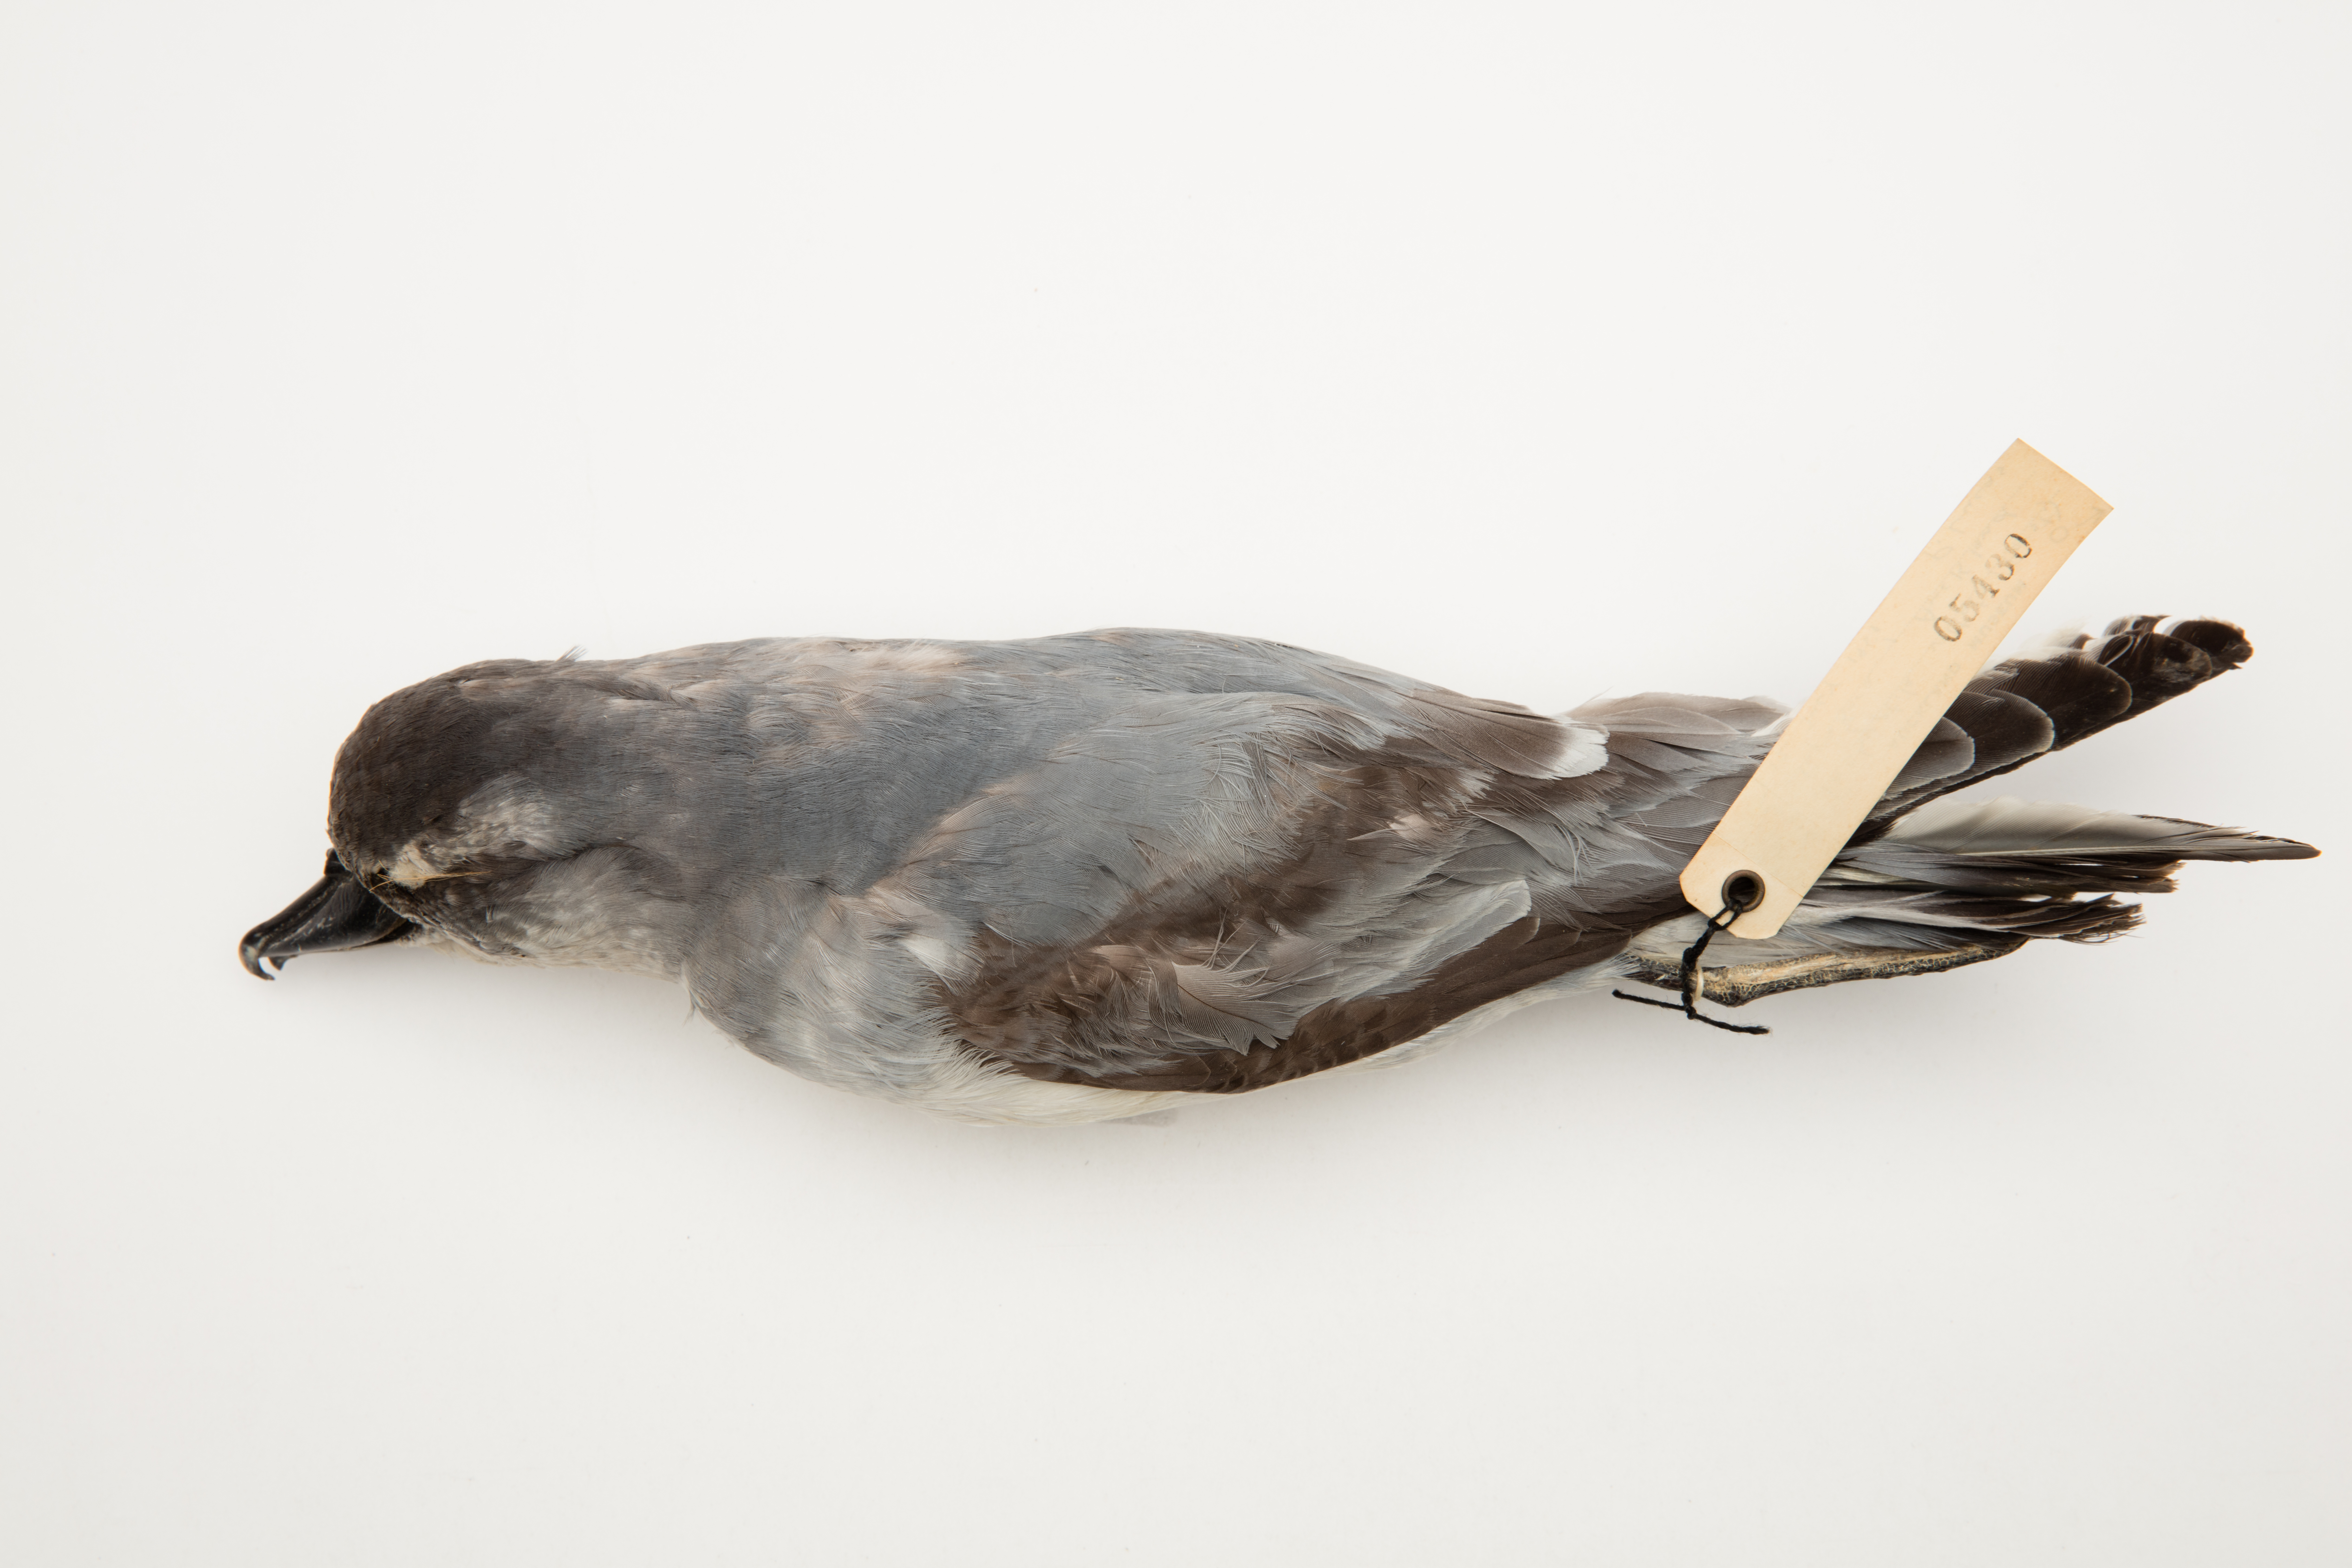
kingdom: Animalia
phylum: Chordata
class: Aves
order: Procellariiformes
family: Procellariidae
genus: Pachyptila
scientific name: Pachyptila vittata
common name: Broad-billed prion
